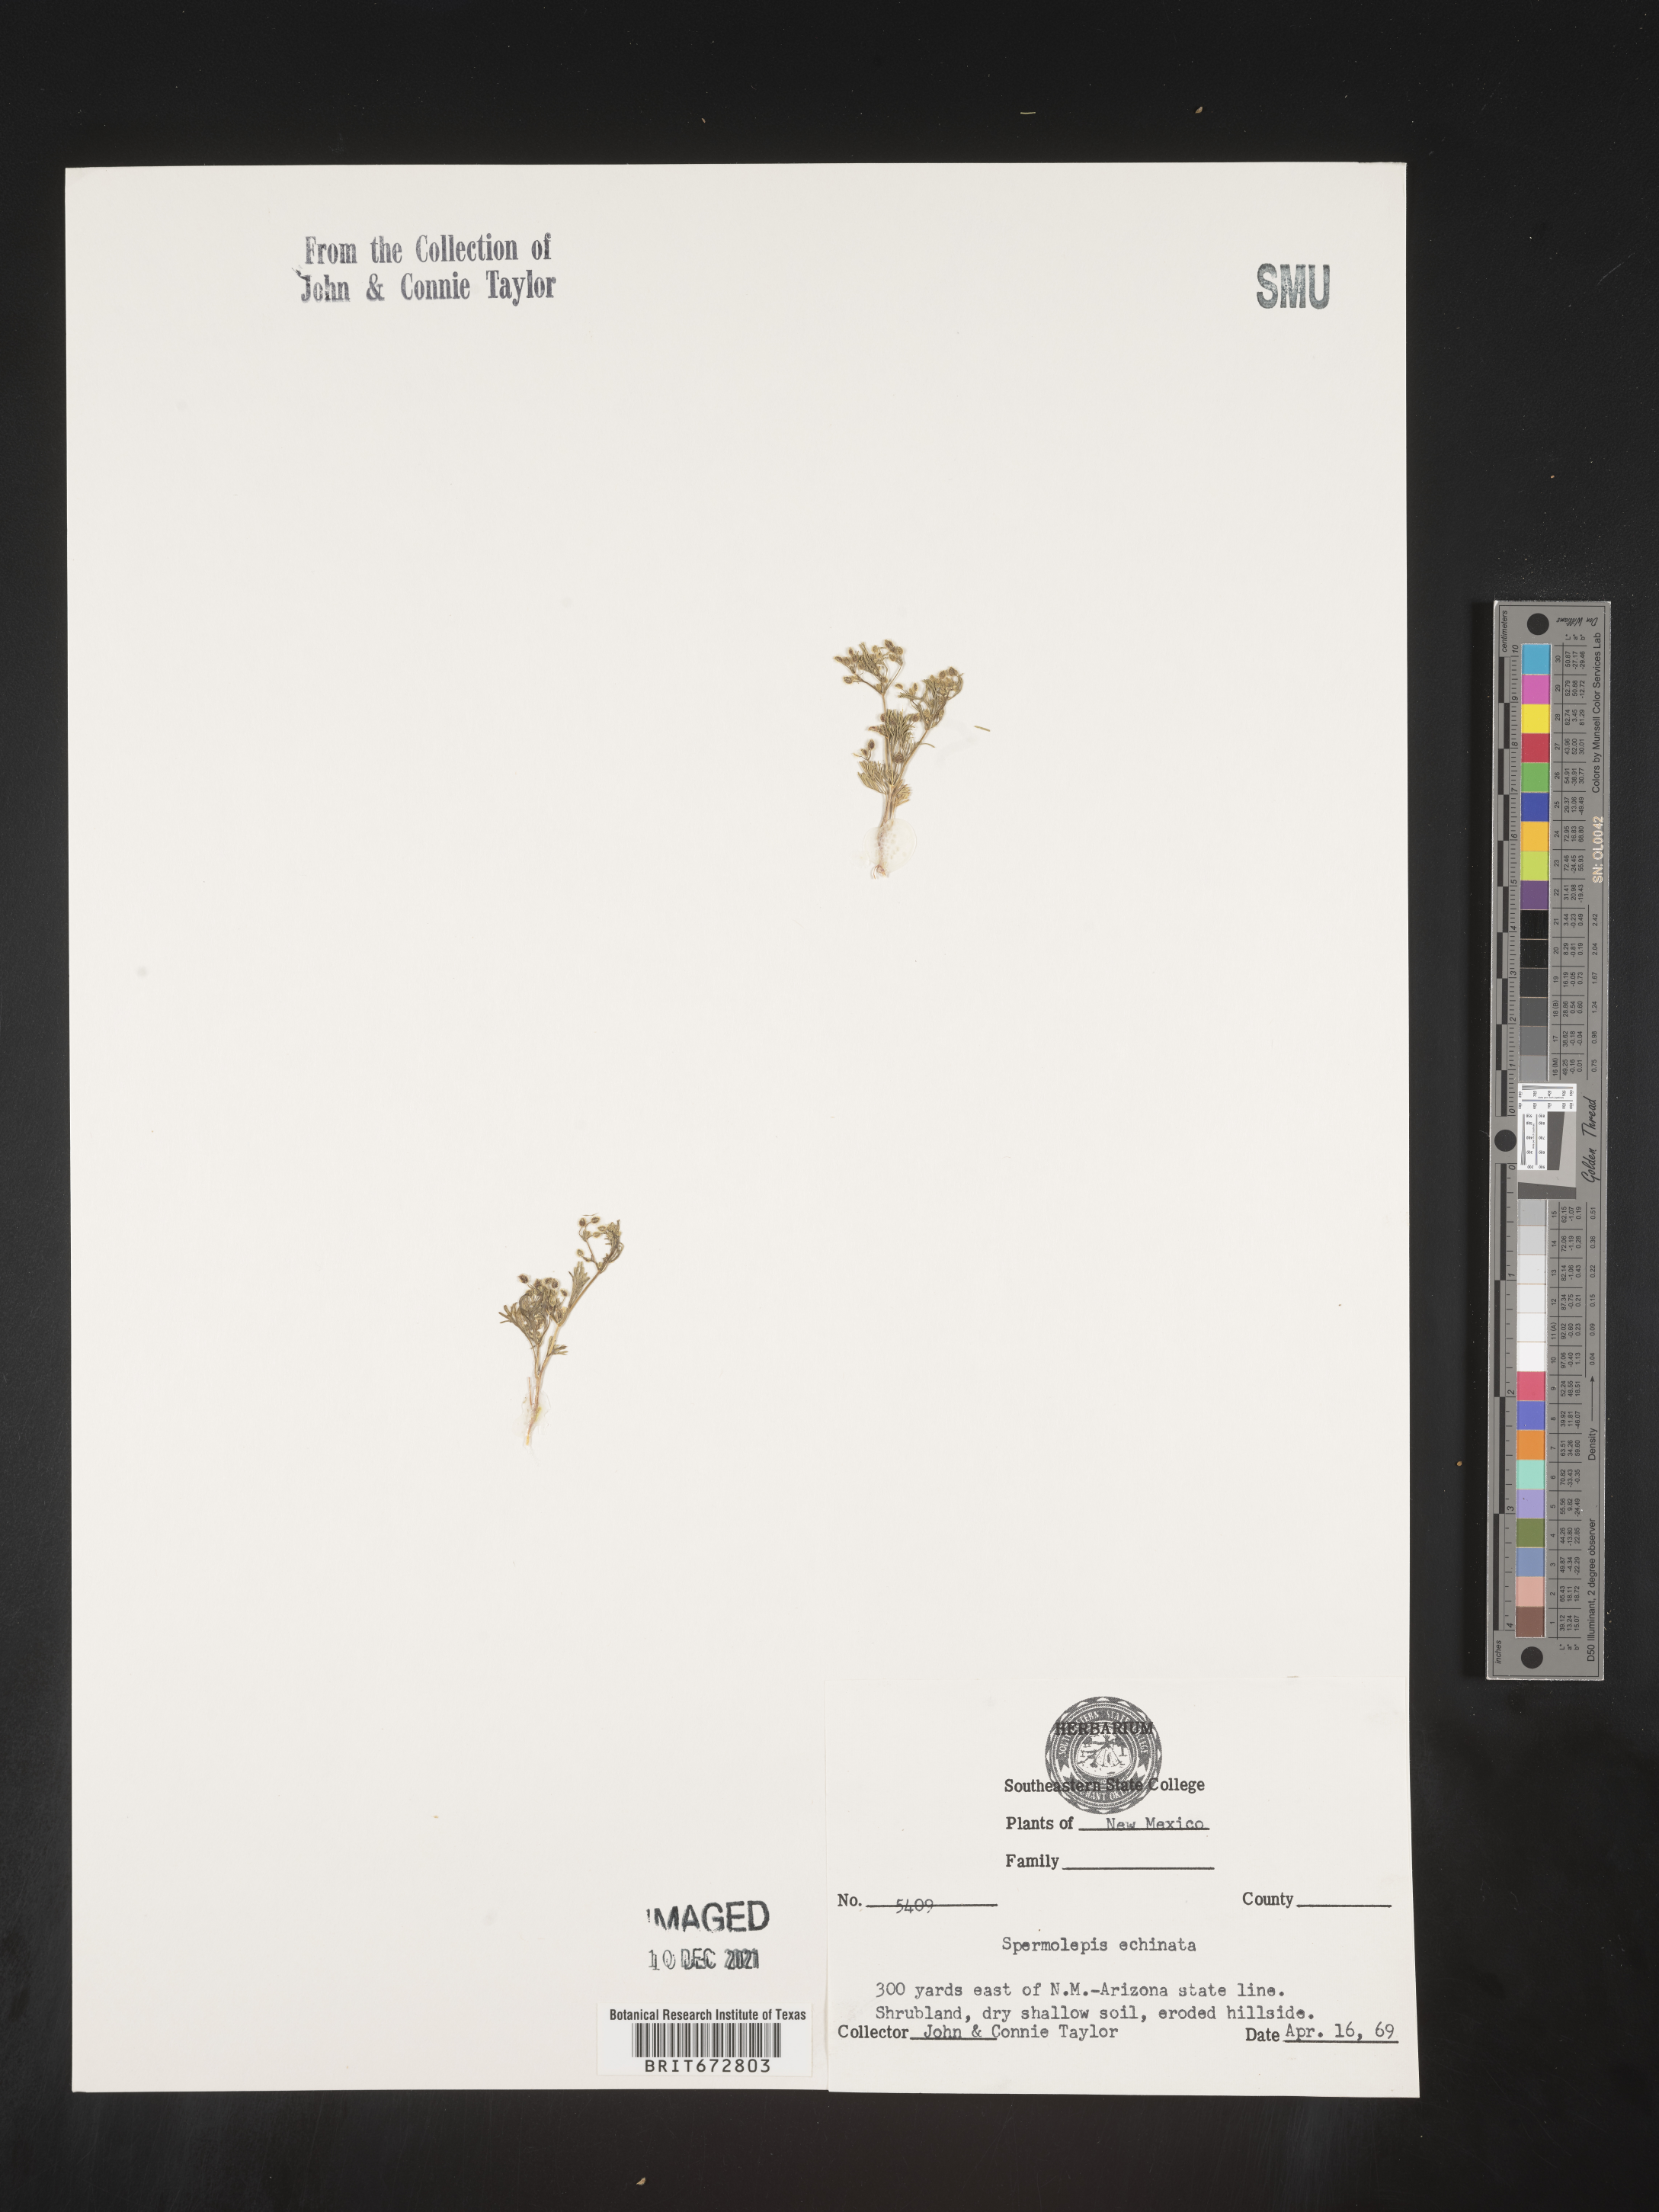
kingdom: Plantae
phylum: Tracheophyta
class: Magnoliopsida
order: Apiales
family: Apiaceae
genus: Spermolepis
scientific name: Spermolepis echinatus
